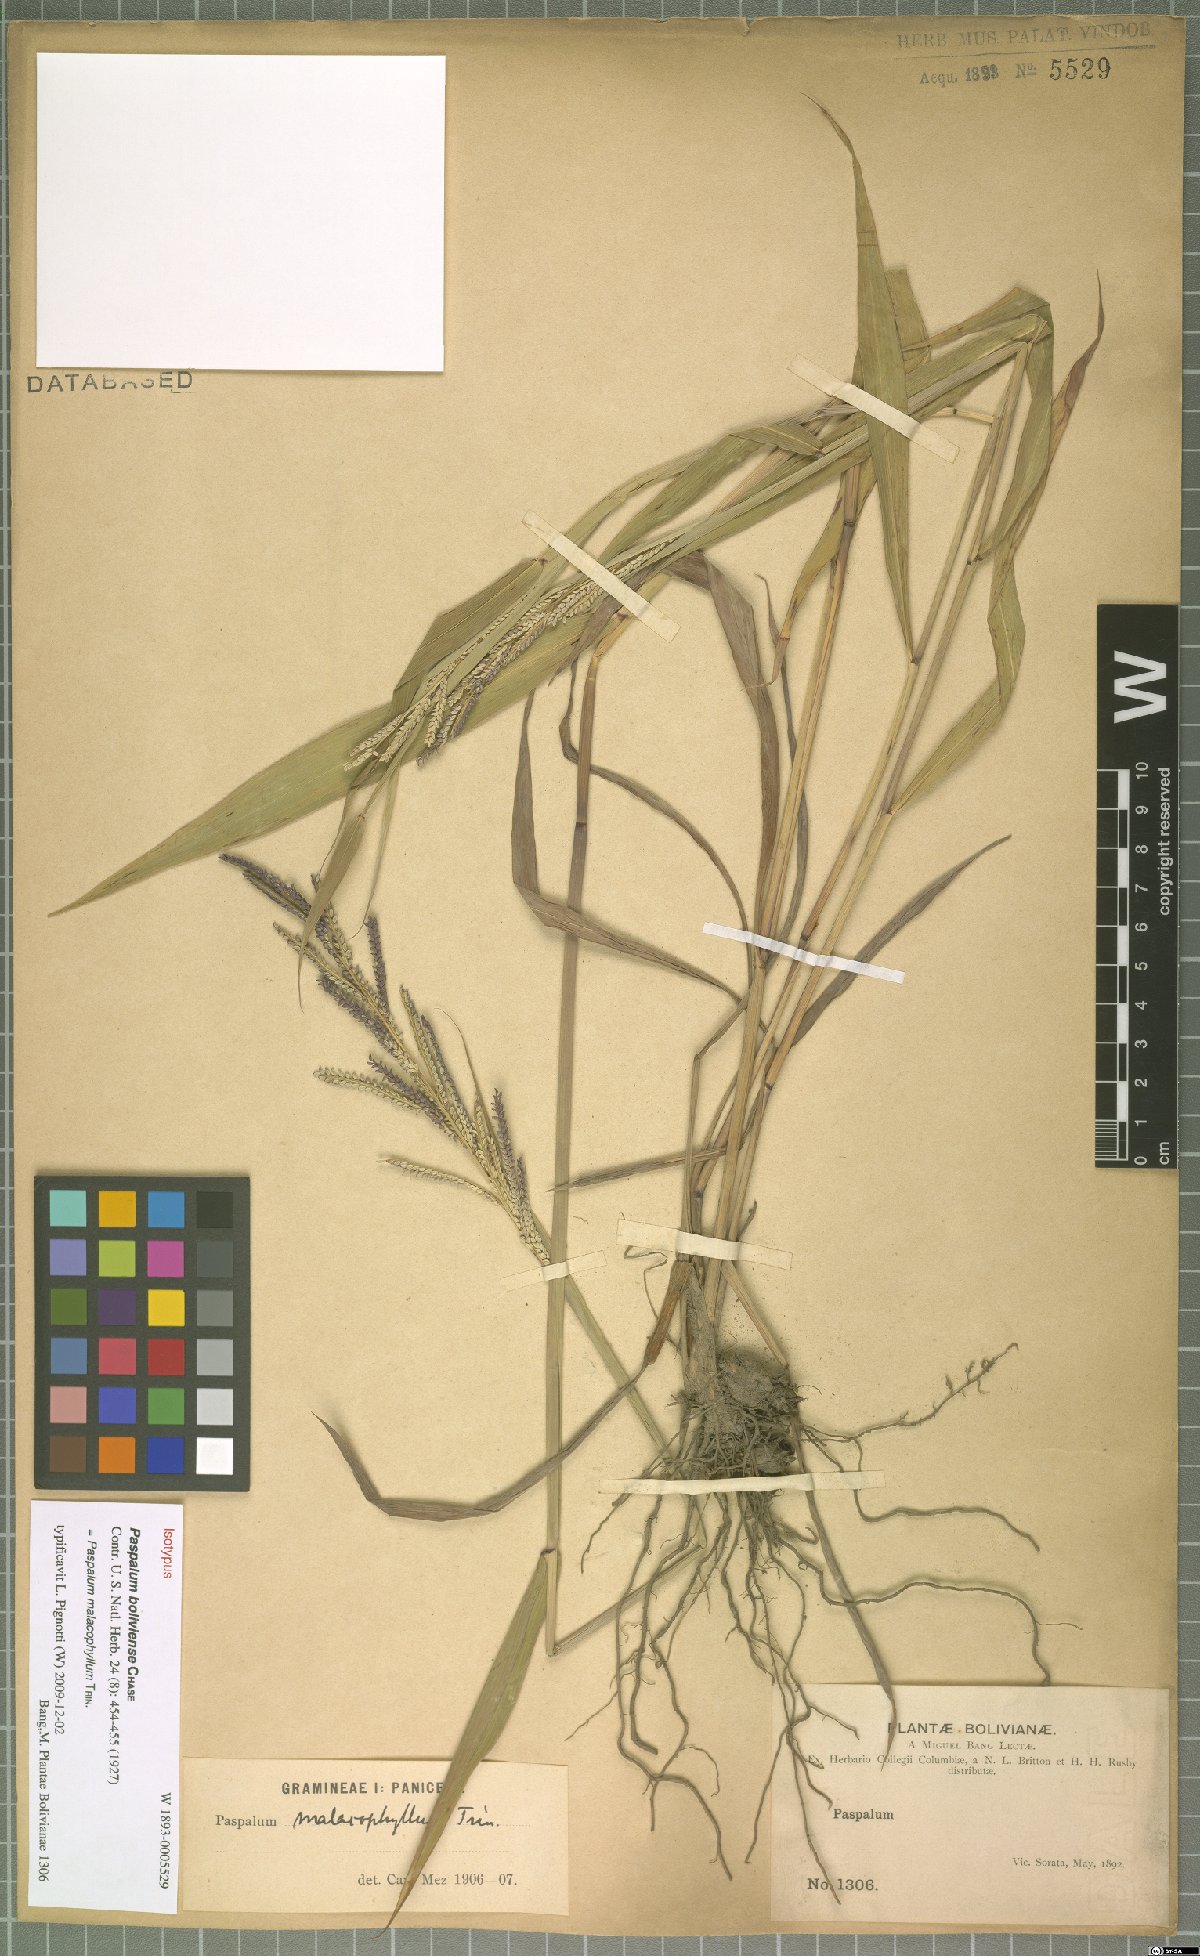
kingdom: Plantae
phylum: Tracheophyta
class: Liliopsida
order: Poales
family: Poaceae
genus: Paspalum
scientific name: Paspalum malacophyllum
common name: Ribbed paspalum
